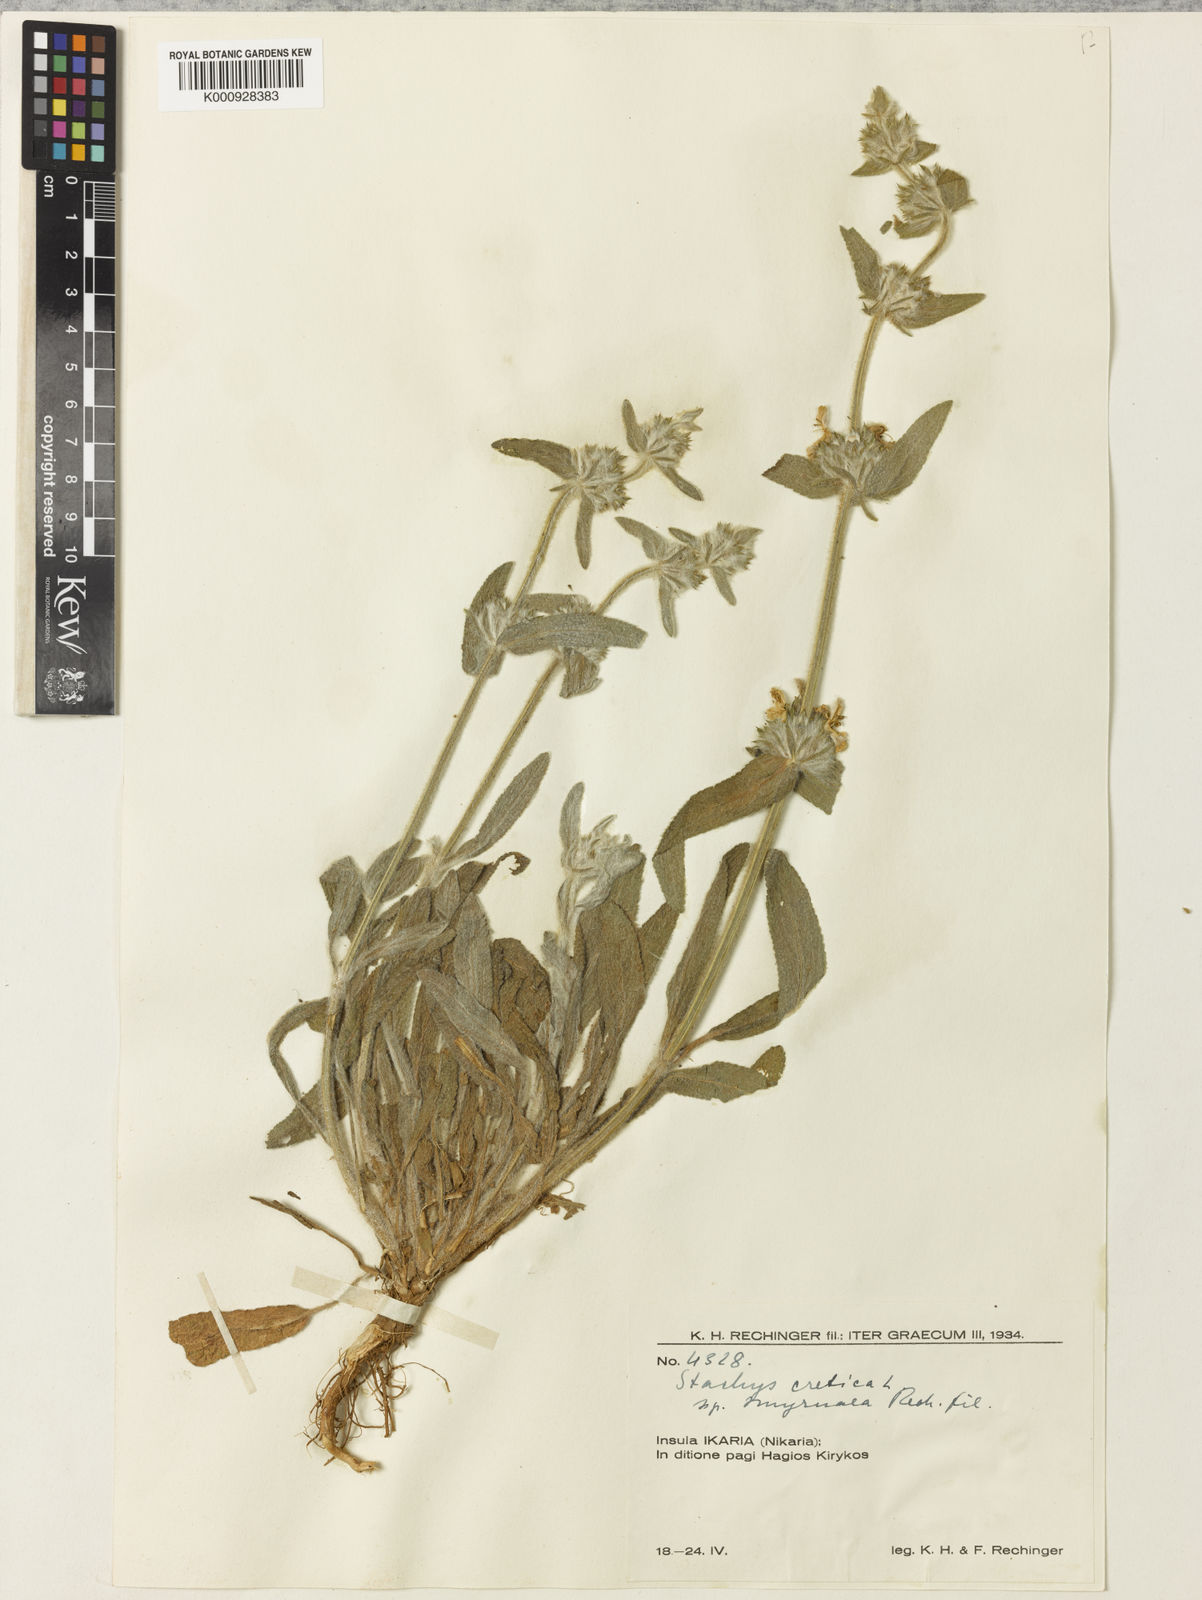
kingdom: Plantae
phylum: Tracheophyta
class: Magnoliopsida
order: Lamiales
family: Lamiaceae
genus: Stachys
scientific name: Stachys cretica
